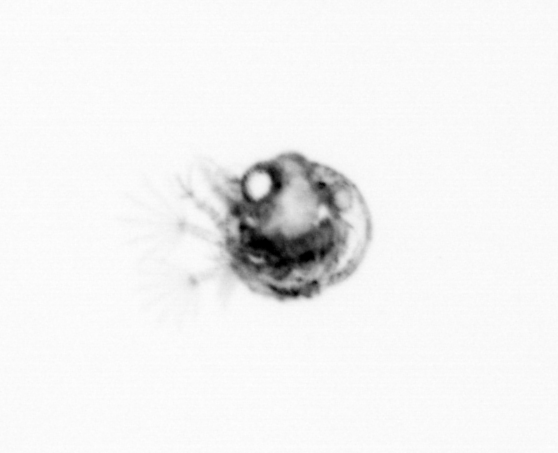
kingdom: Animalia
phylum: Arthropoda
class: Malacostraca
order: Decapoda
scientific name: Decapoda
